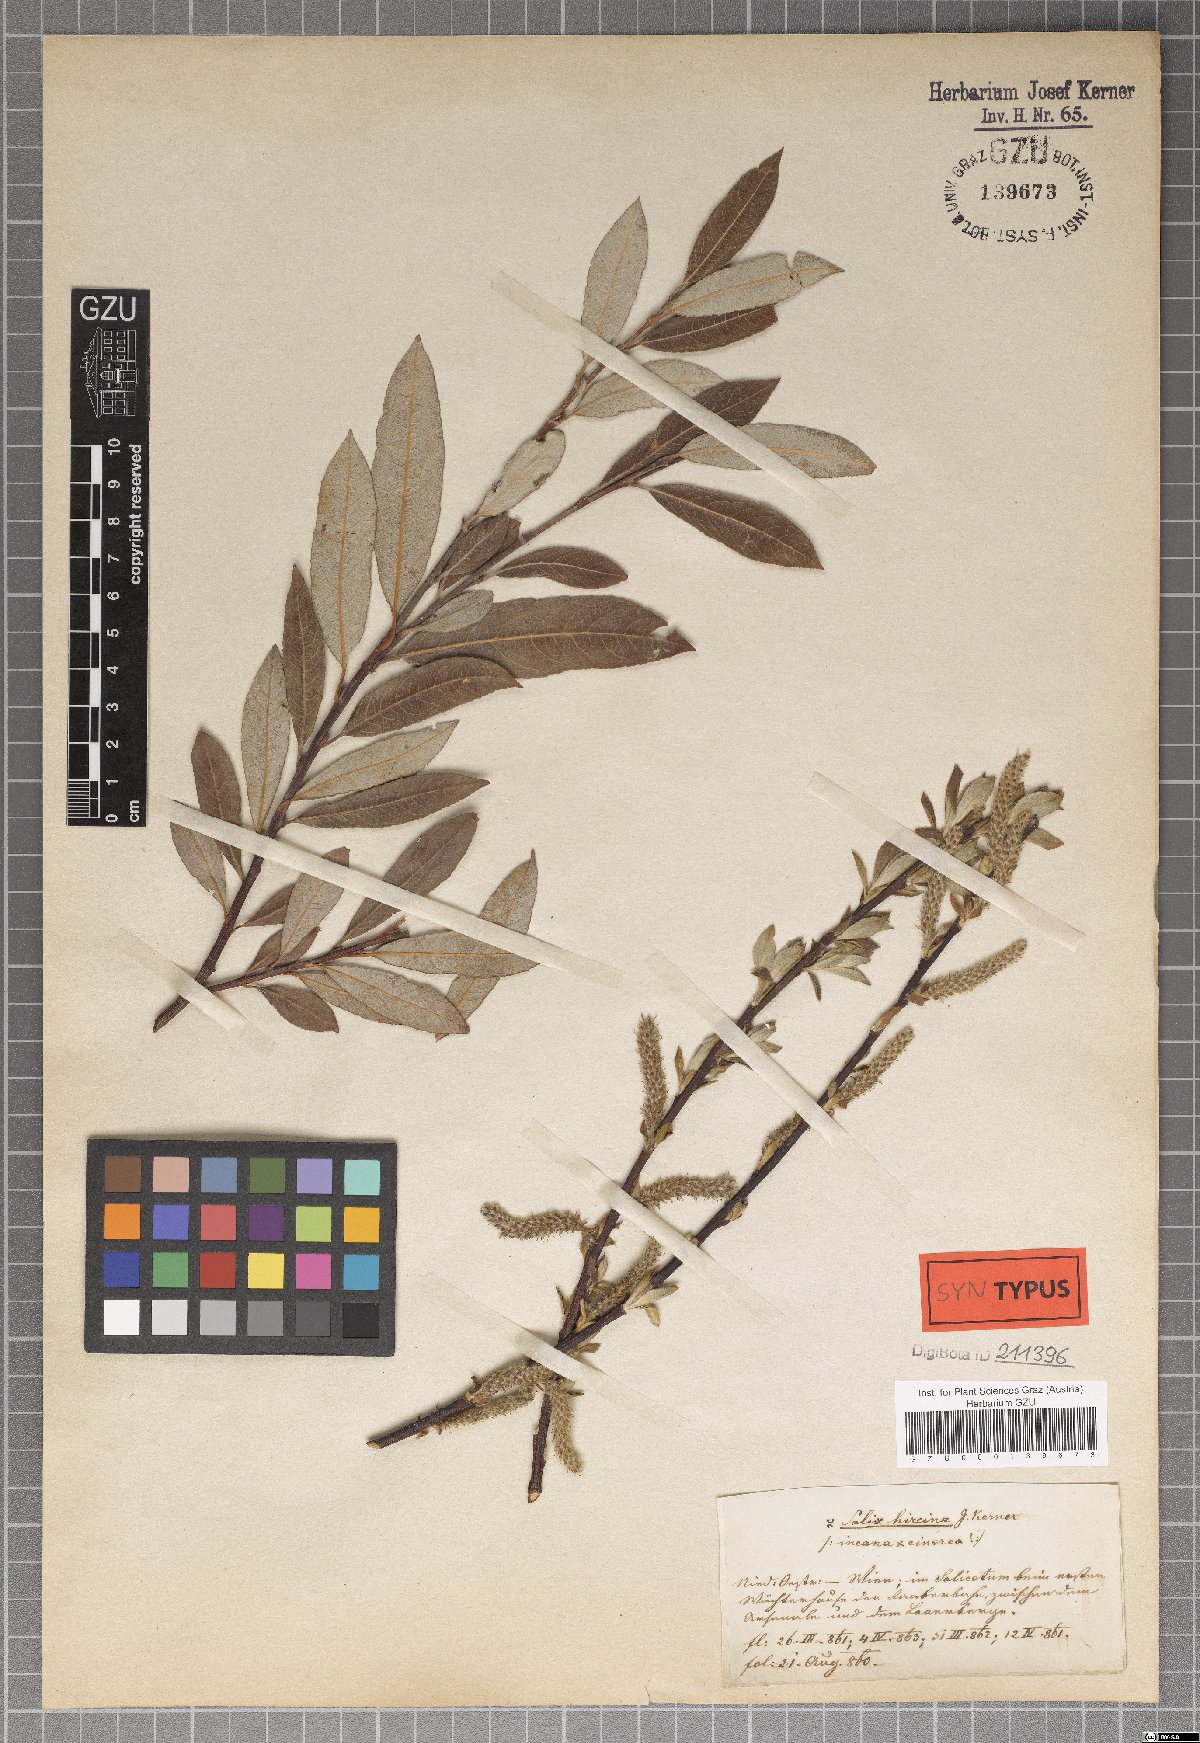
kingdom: Plantae
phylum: Tracheophyta
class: Magnoliopsida
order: Malpighiales
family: Salicaceae
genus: Salix
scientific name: Salix eleagnos
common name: Elaeagnus willow
